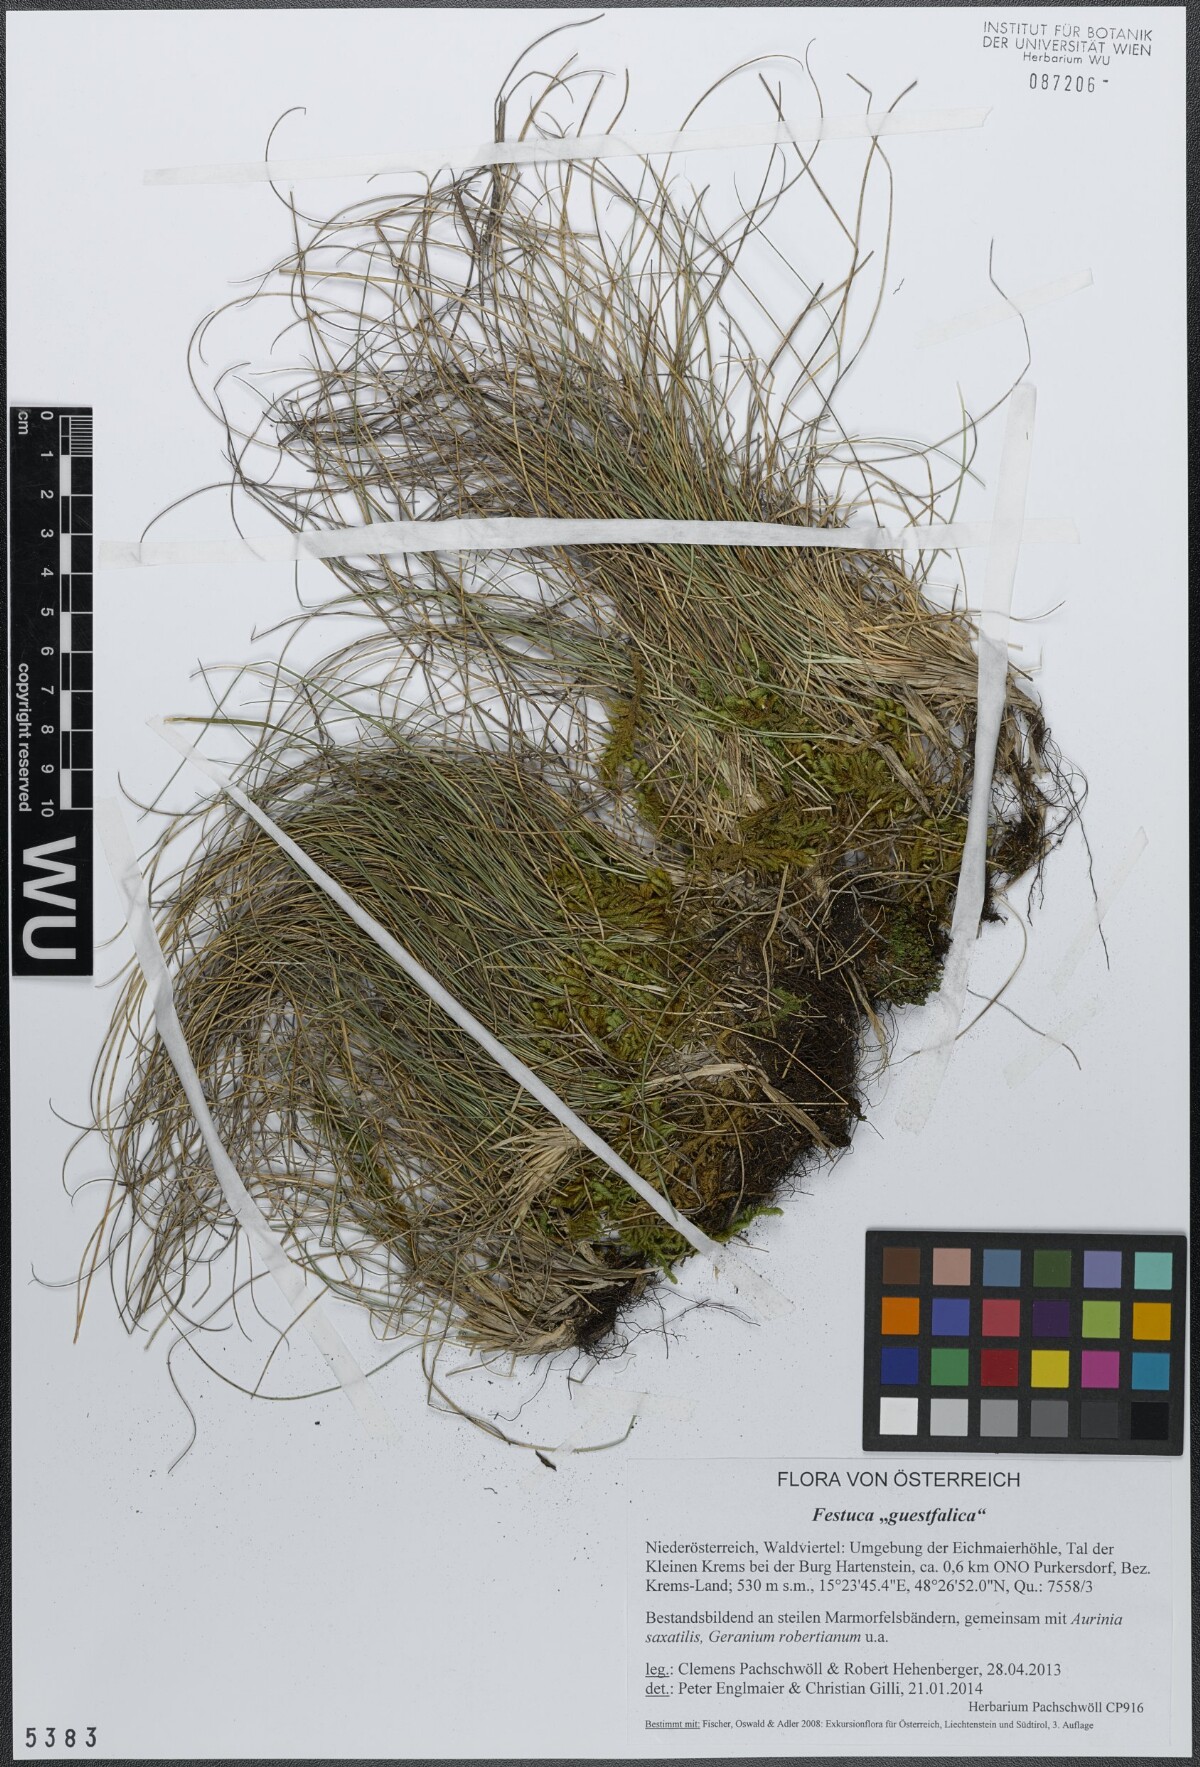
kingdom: Plantae
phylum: Tracheophyta
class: Liliopsida
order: Poales
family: Poaceae
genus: Festuca
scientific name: Festuca guestfalica
